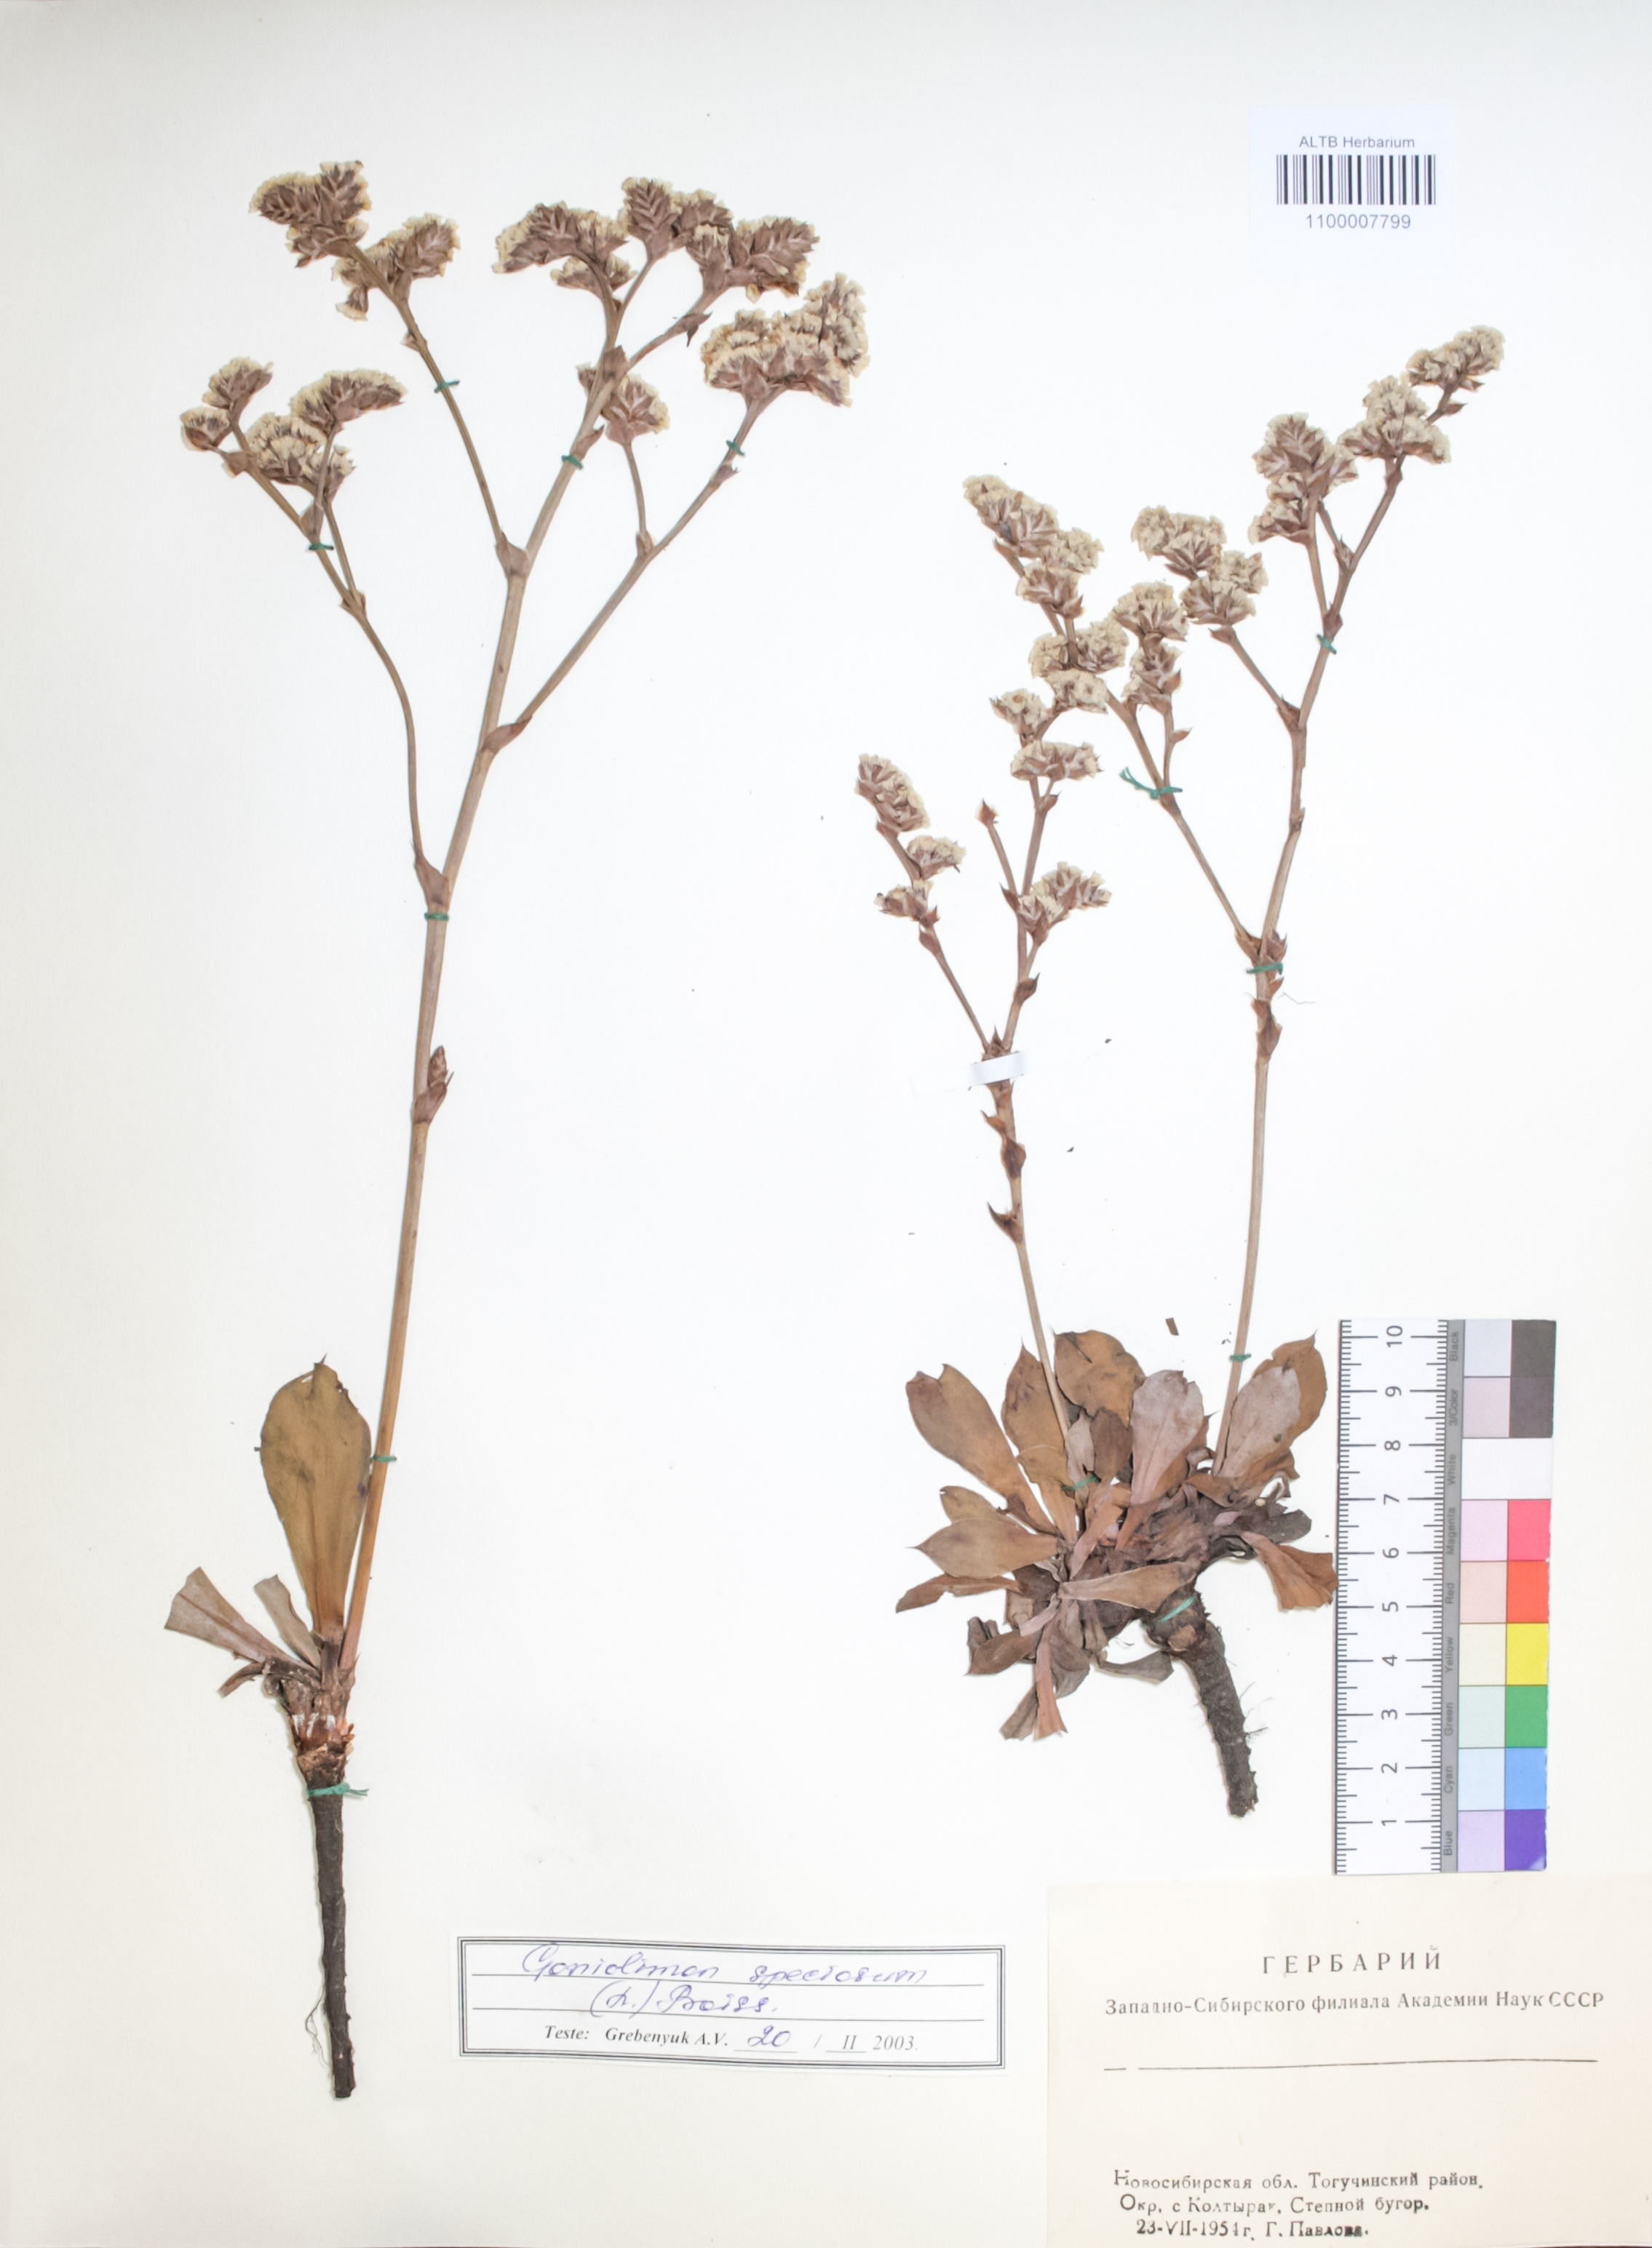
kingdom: Plantae
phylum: Tracheophyta
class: Magnoliopsida
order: Caryophyllales
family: Plumbaginaceae
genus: Goniolimon
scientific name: Goniolimon speciosum
